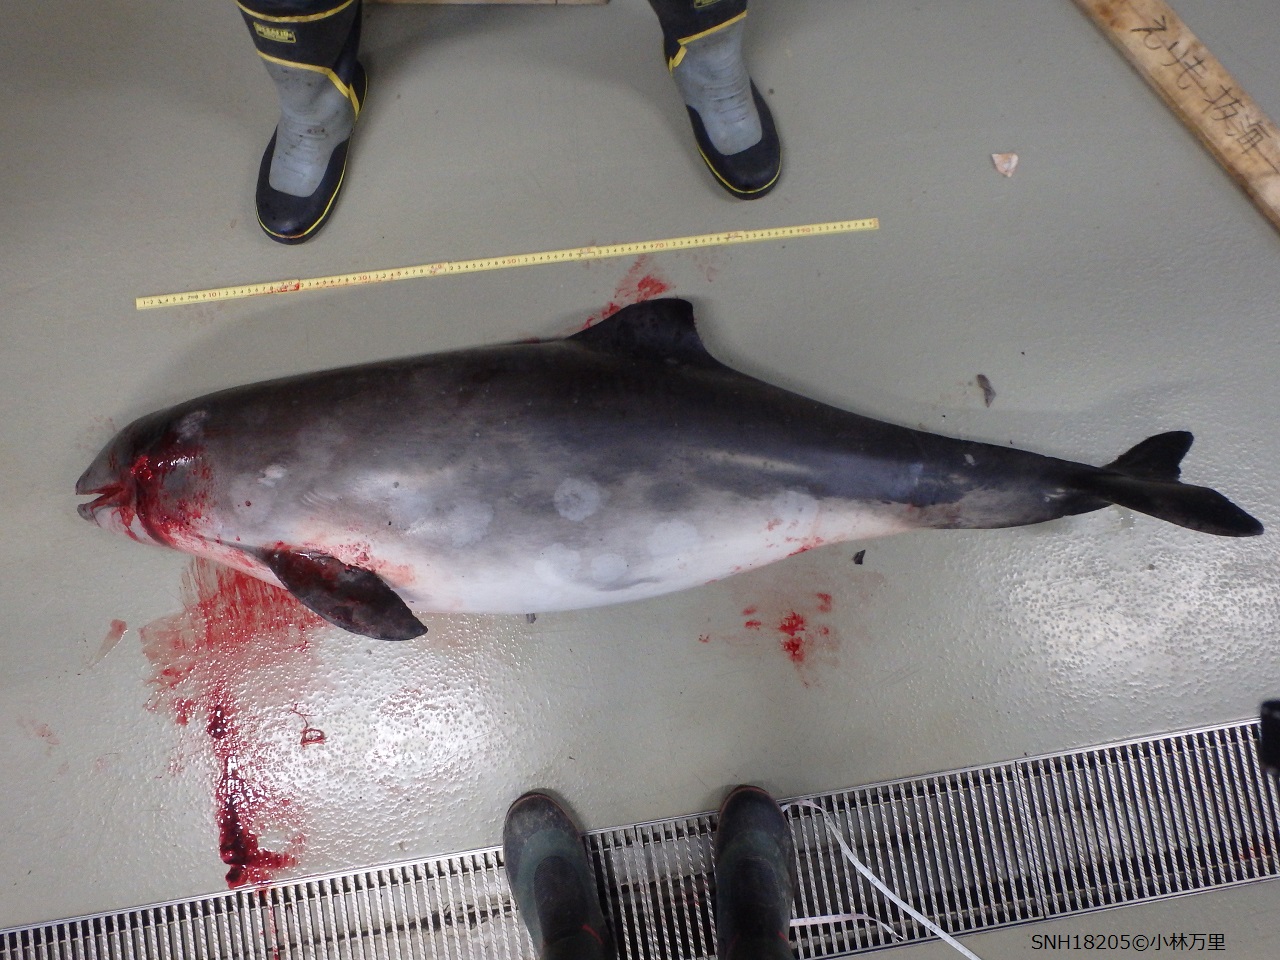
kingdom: Animalia
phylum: Chordata
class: Mammalia
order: Cetacea
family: Phocoenidae
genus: Phocoena
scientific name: Phocoena phocoena
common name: Harbour porpoise
